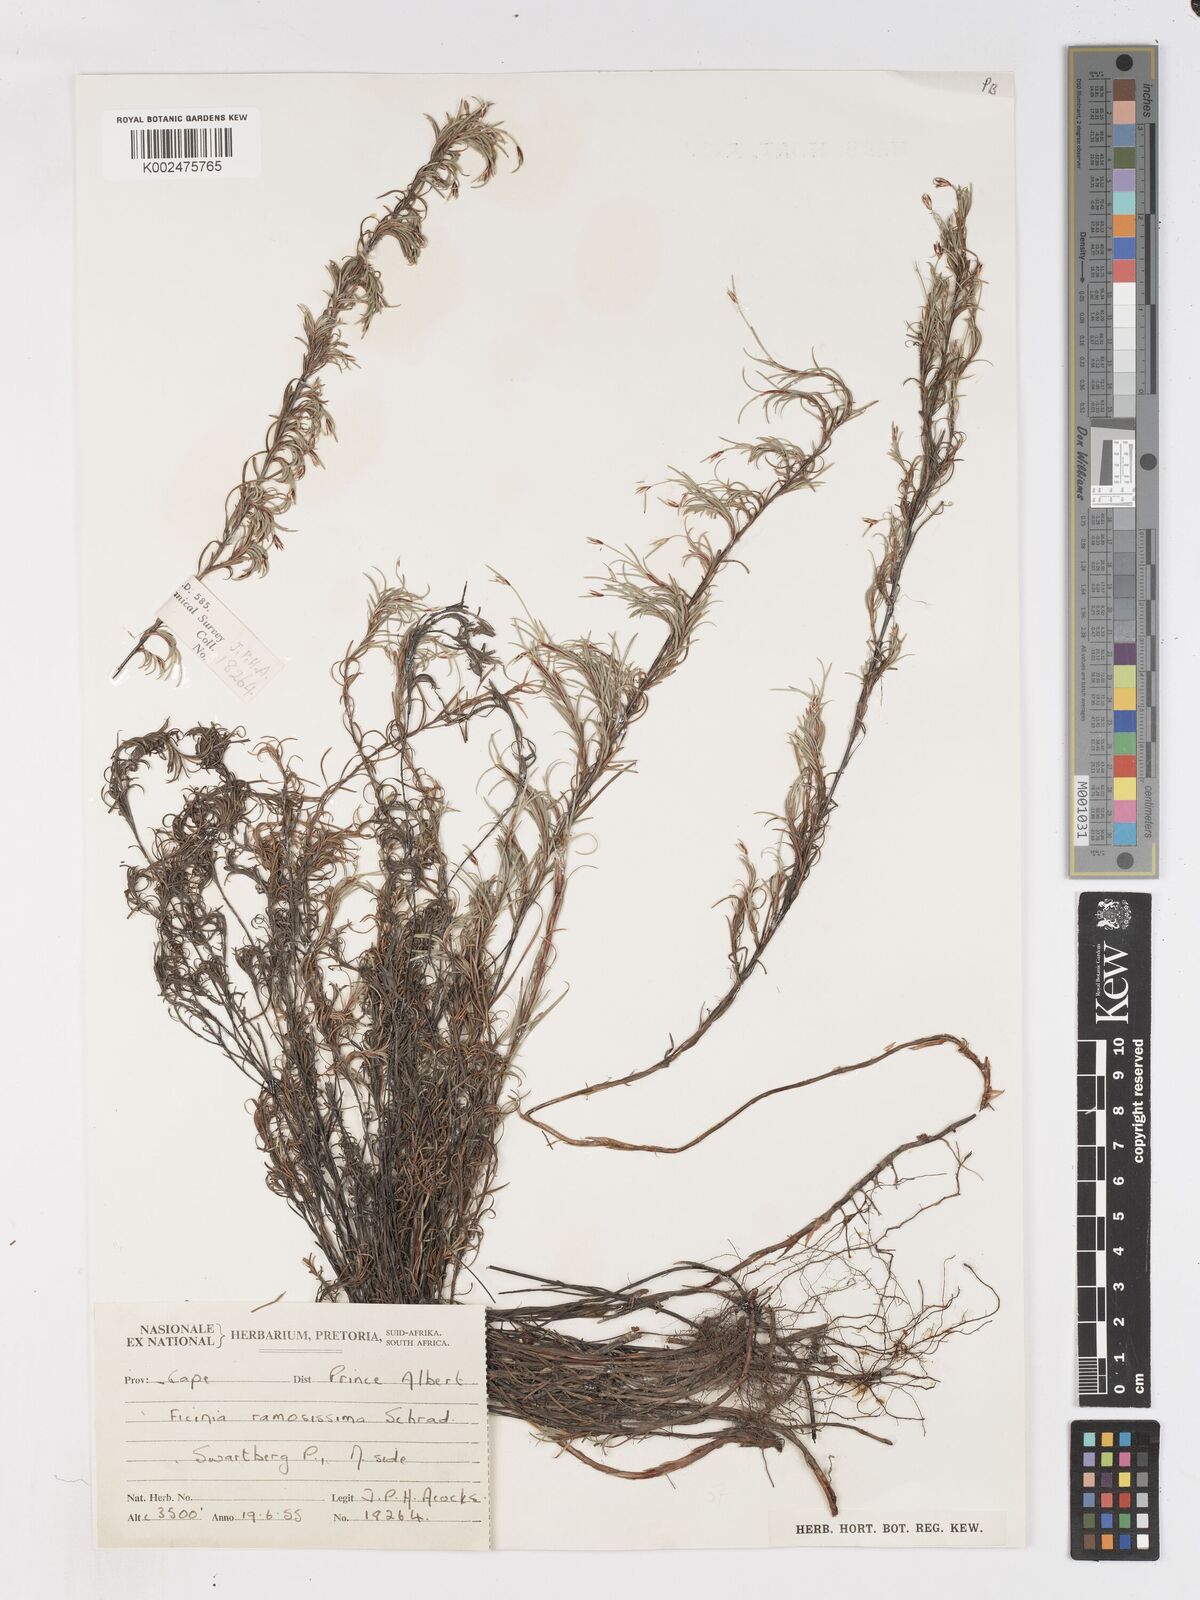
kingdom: Plantae
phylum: Tracheophyta
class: Liliopsida
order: Poales
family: Cyperaceae
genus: Ficinia
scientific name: Ficinia ramosissima
